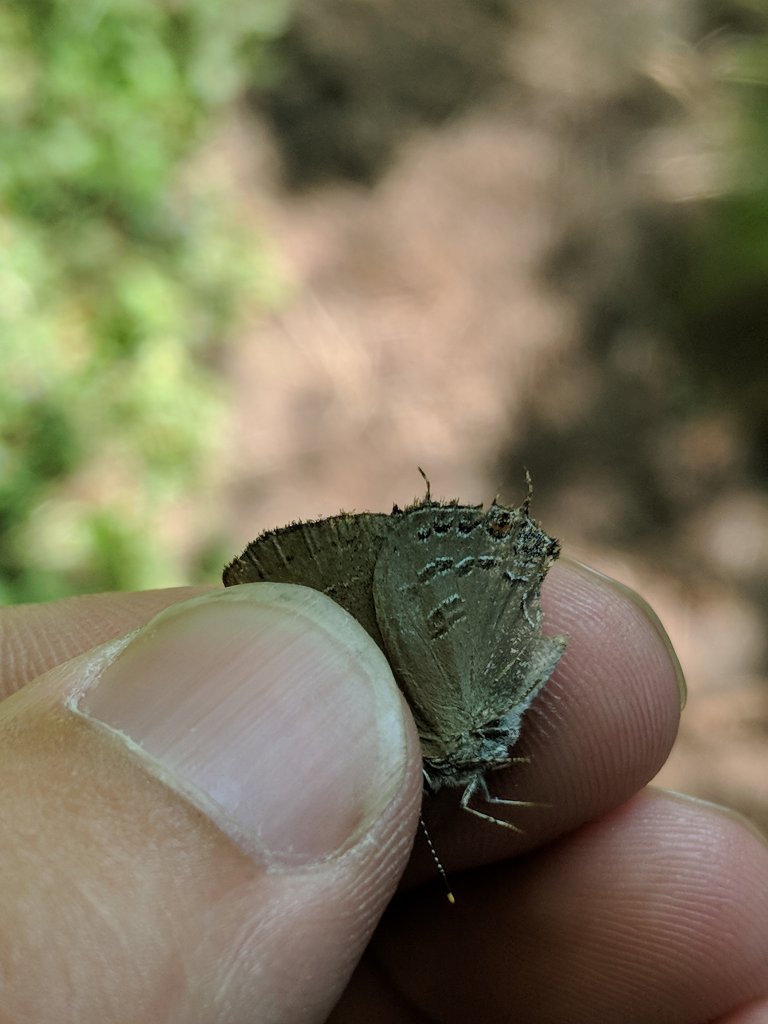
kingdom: Animalia
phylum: Arthropoda
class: Insecta
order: Lepidoptera
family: Lycaenidae
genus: Satyrium
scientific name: Satyrium
